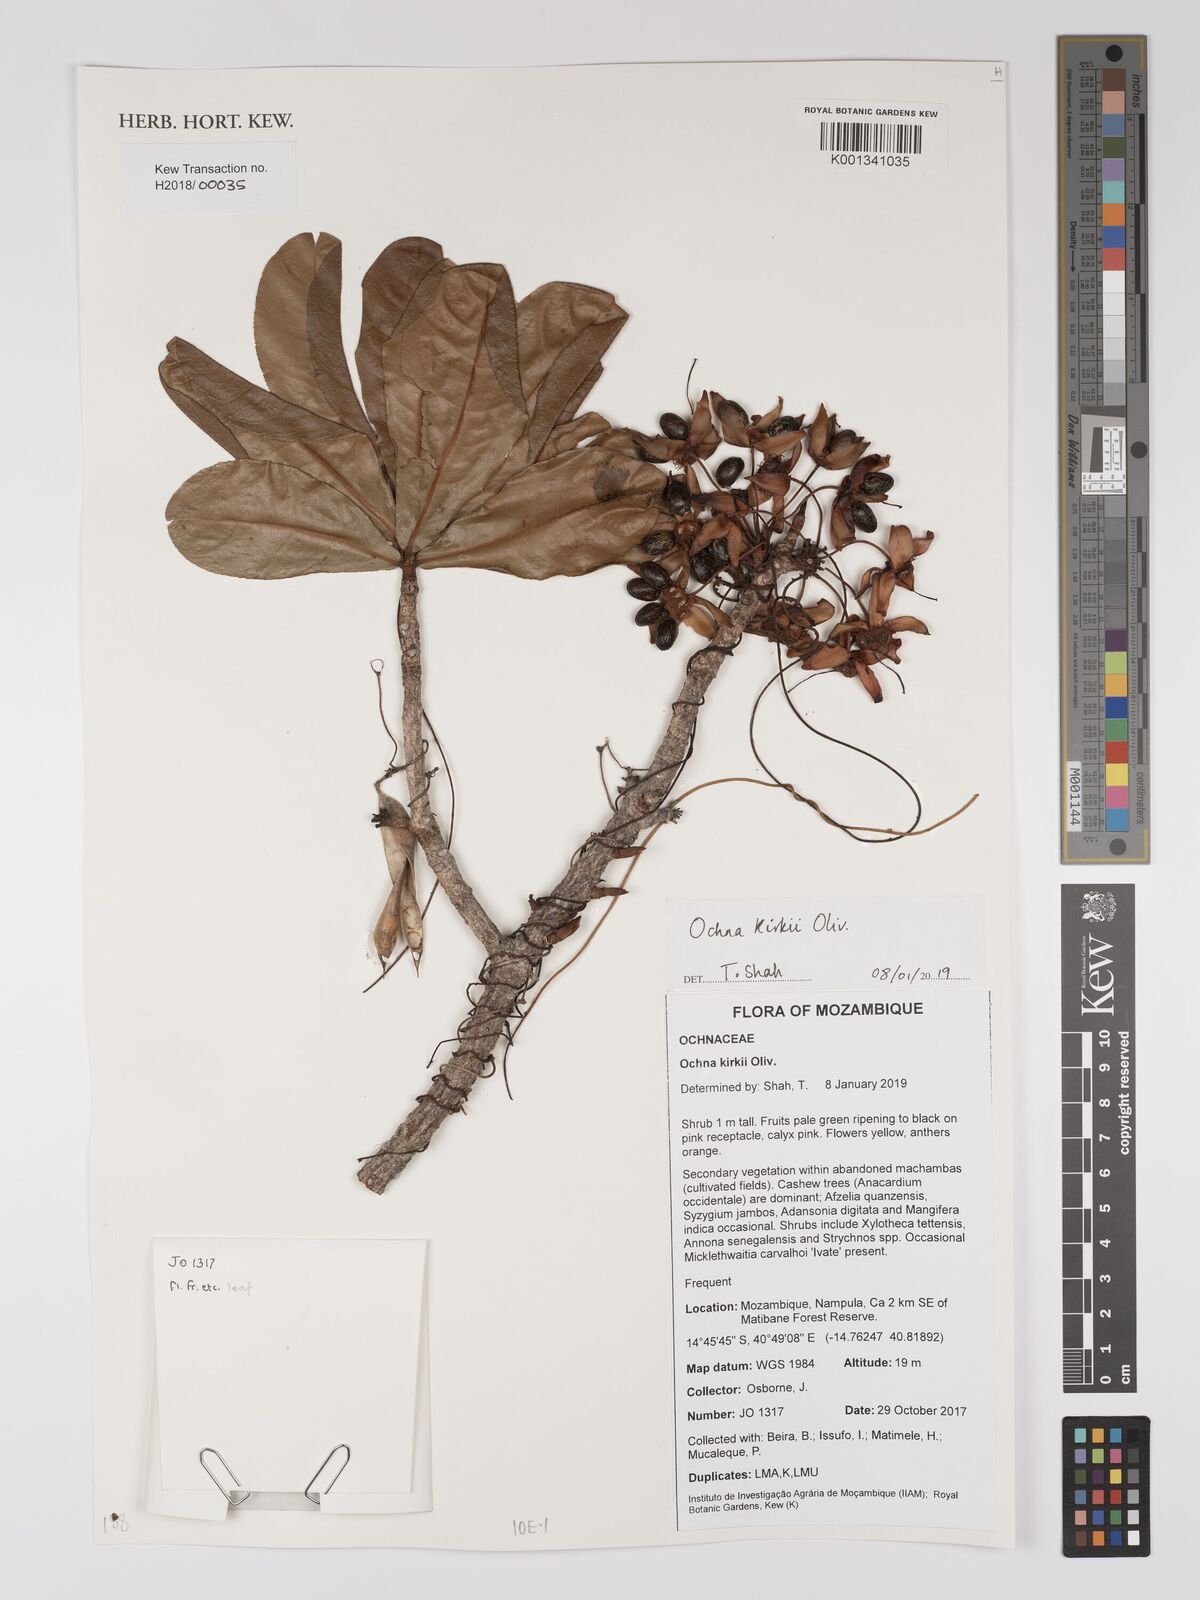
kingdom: Plantae
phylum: Tracheophyta
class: Magnoliopsida
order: Malpighiales
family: Ochnaceae
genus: Ochna
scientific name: Ochna kirkii
